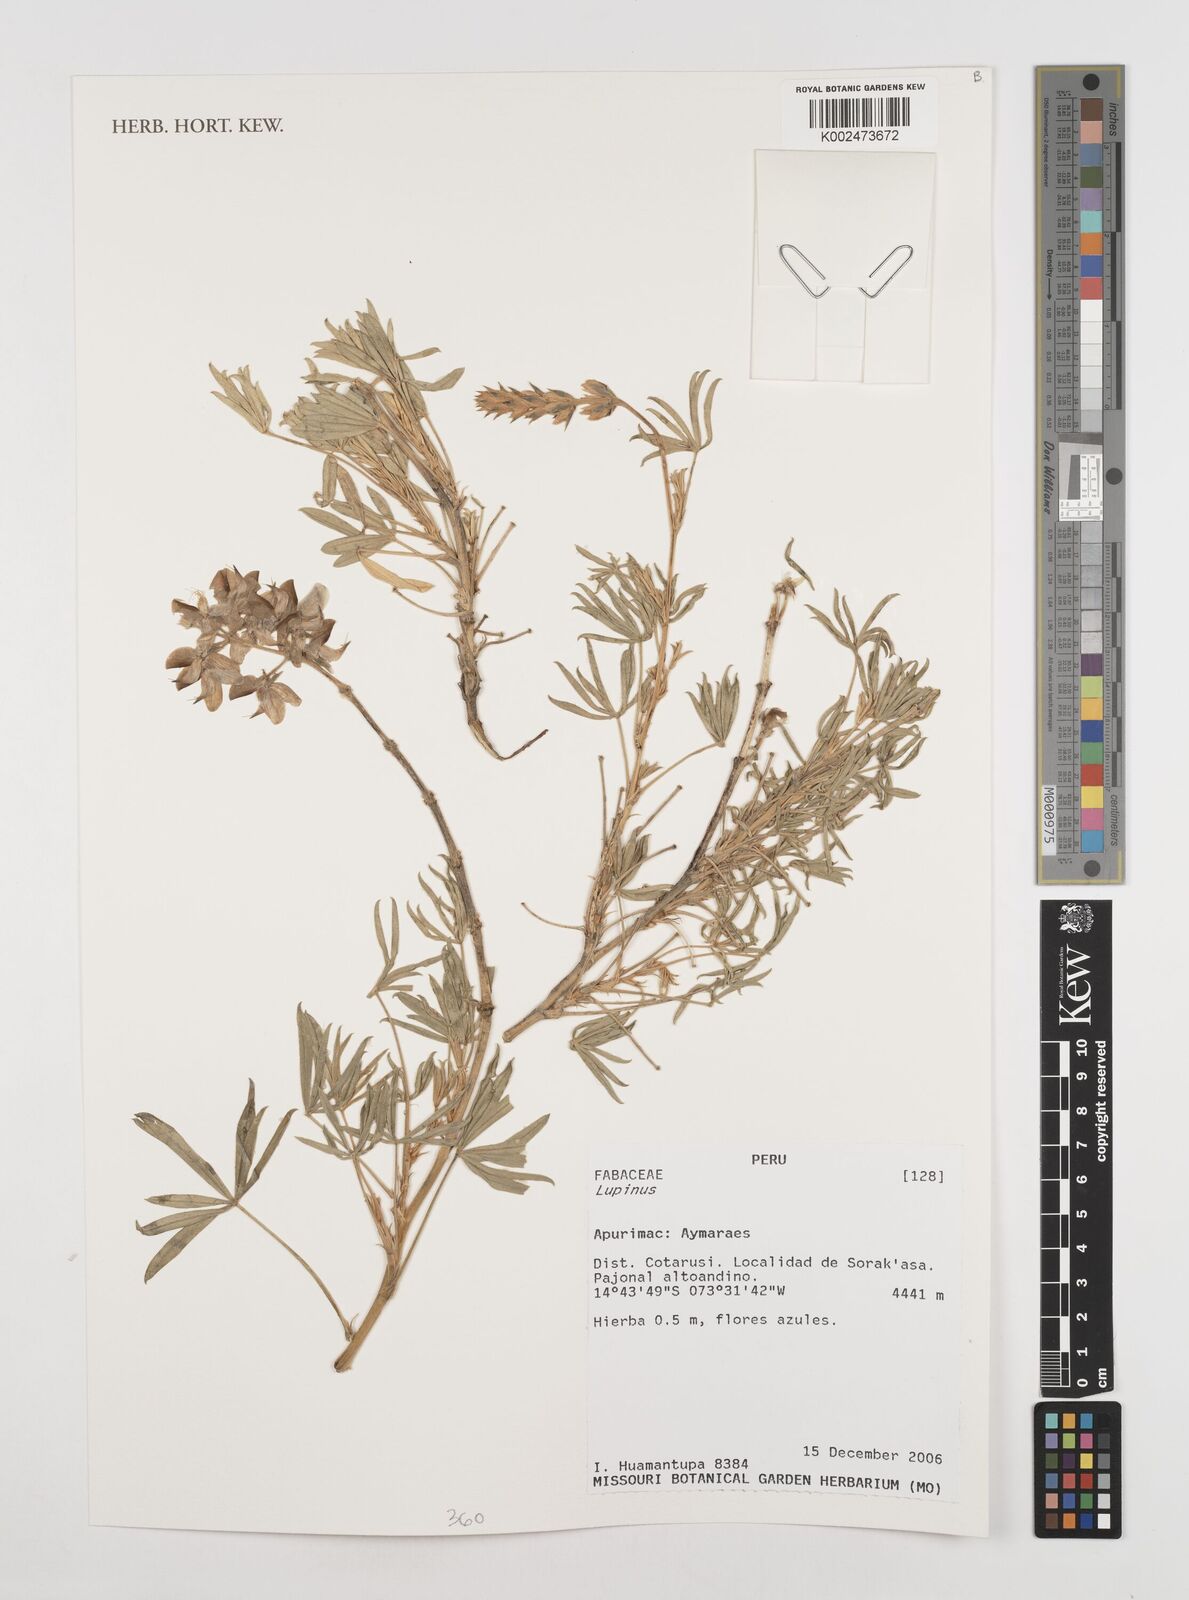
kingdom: Plantae
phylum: Tracheophyta
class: Magnoliopsida
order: Fabales
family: Fabaceae
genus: Lupinus
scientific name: Lupinus
